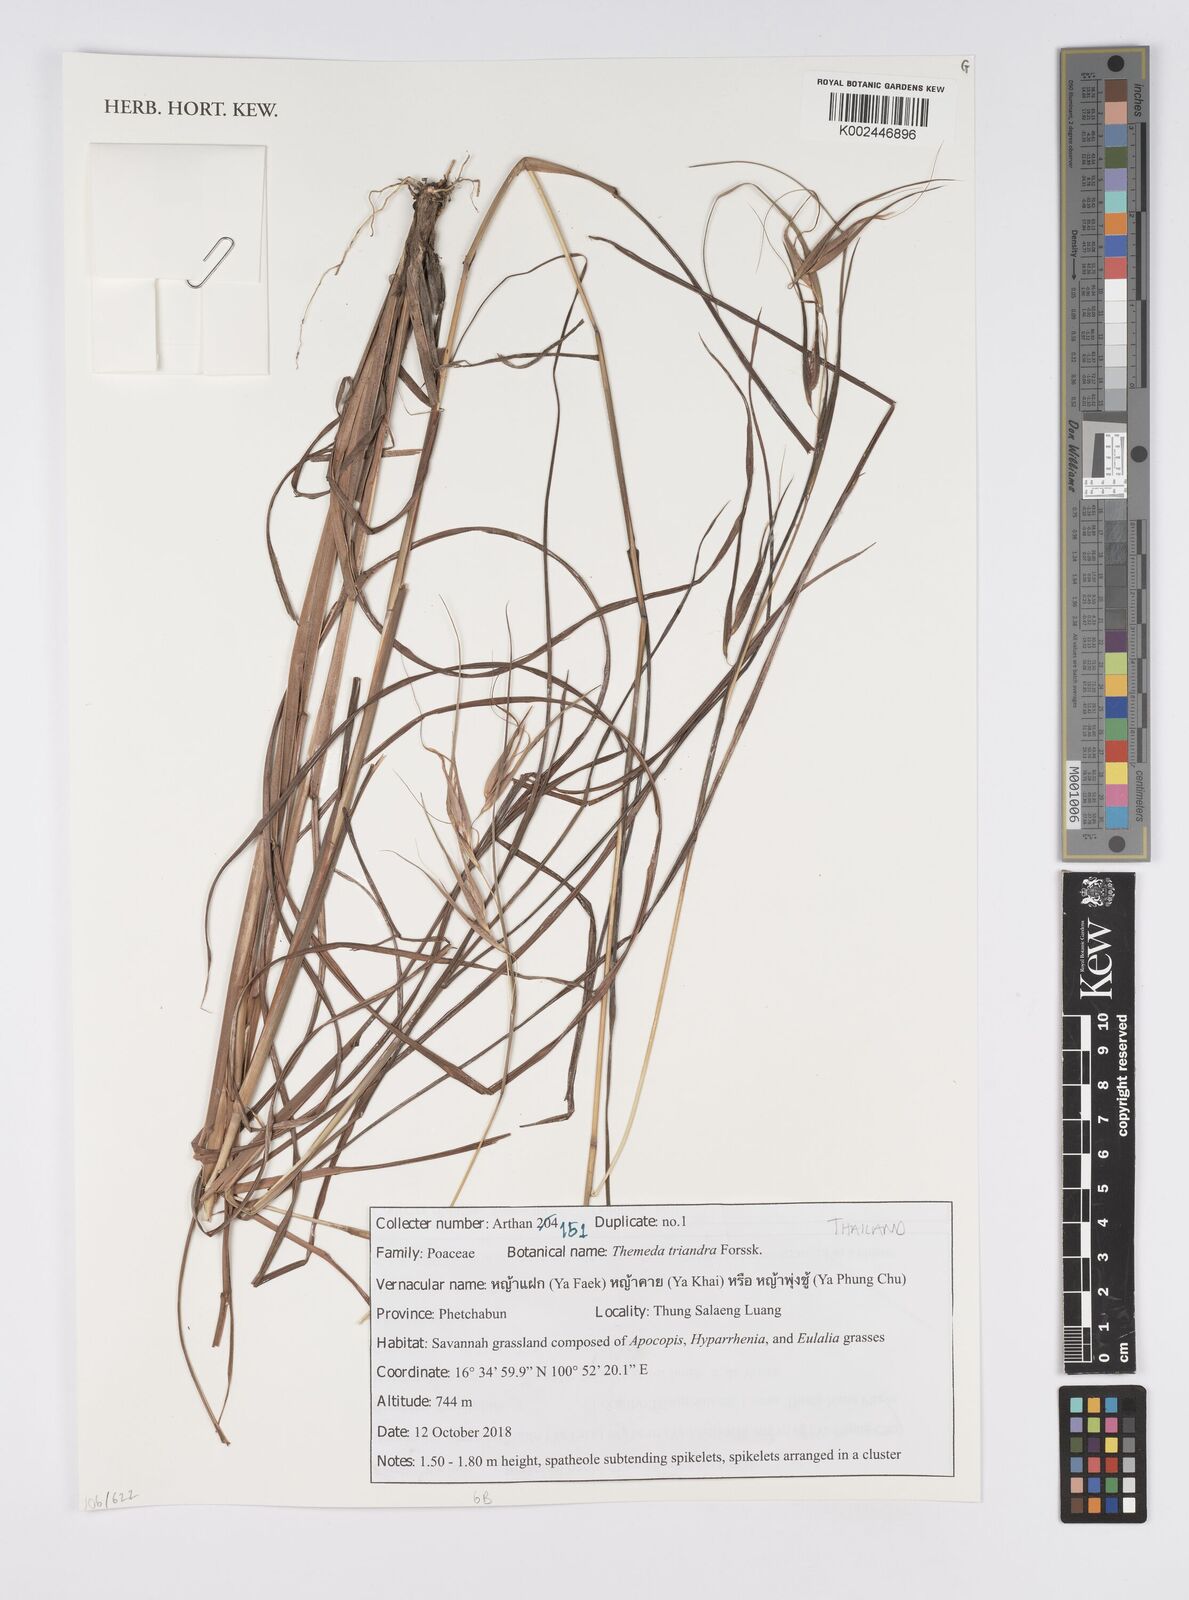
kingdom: Plantae
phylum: Tracheophyta
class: Liliopsida
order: Poales
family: Poaceae
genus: Themeda
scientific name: Themeda triandra
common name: Kangaroo grass
